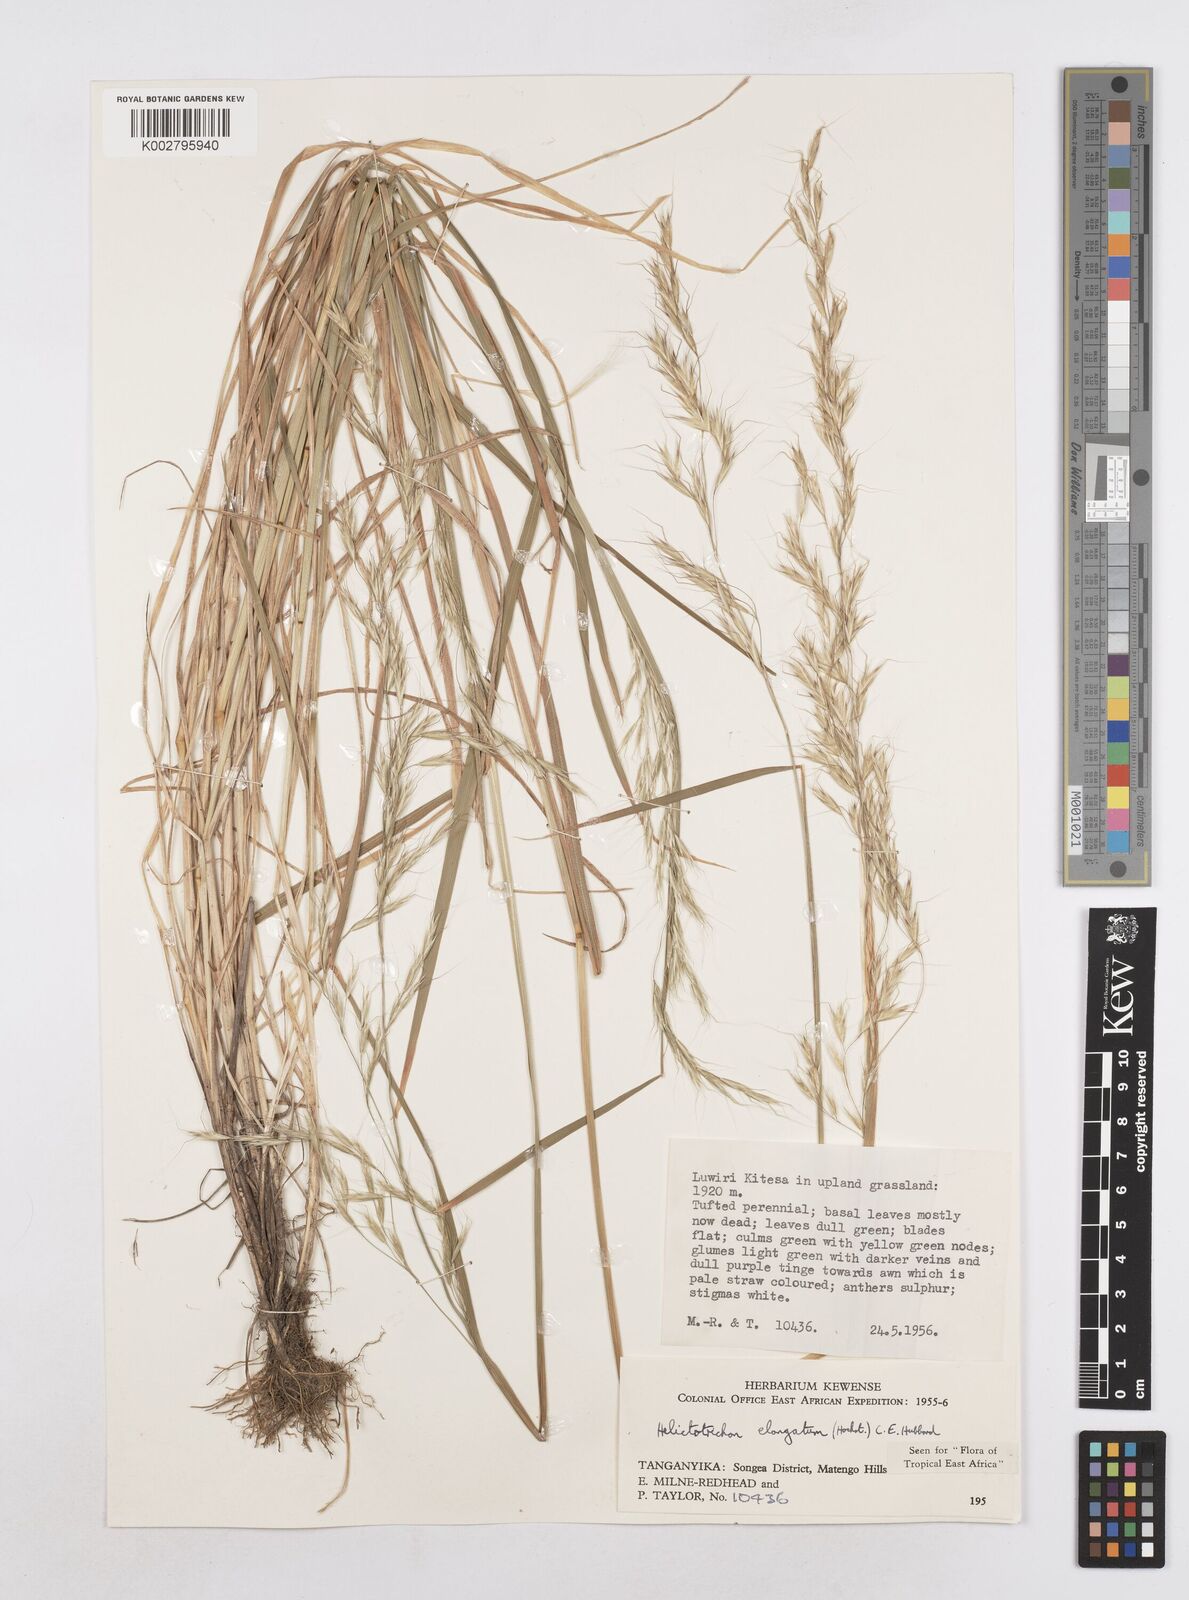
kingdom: Plantae
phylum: Tracheophyta
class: Liliopsida
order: Poales
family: Poaceae
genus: Trisetopsis
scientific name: Trisetopsis elongata
